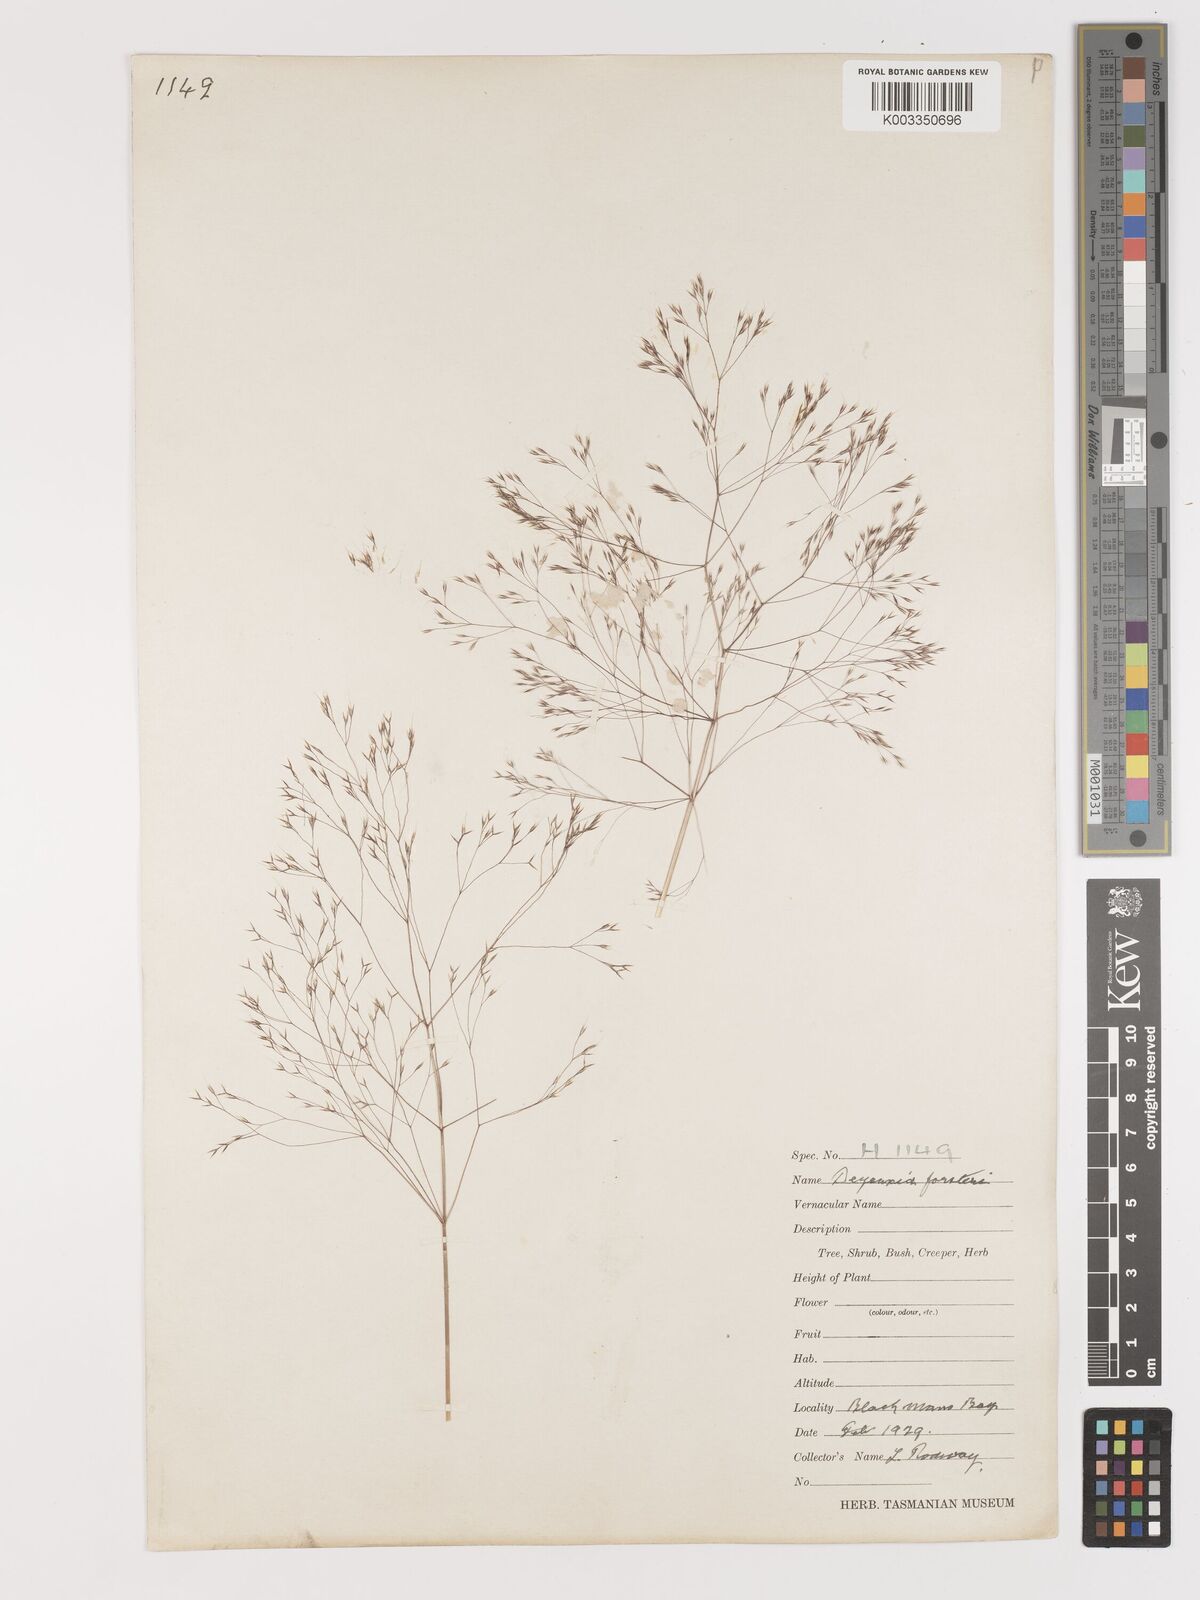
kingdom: Plantae
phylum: Tracheophyta
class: Liliopsida
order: Poales
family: Poaceae
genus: Lachnagrostis
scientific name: Lachnagrostis aemula
